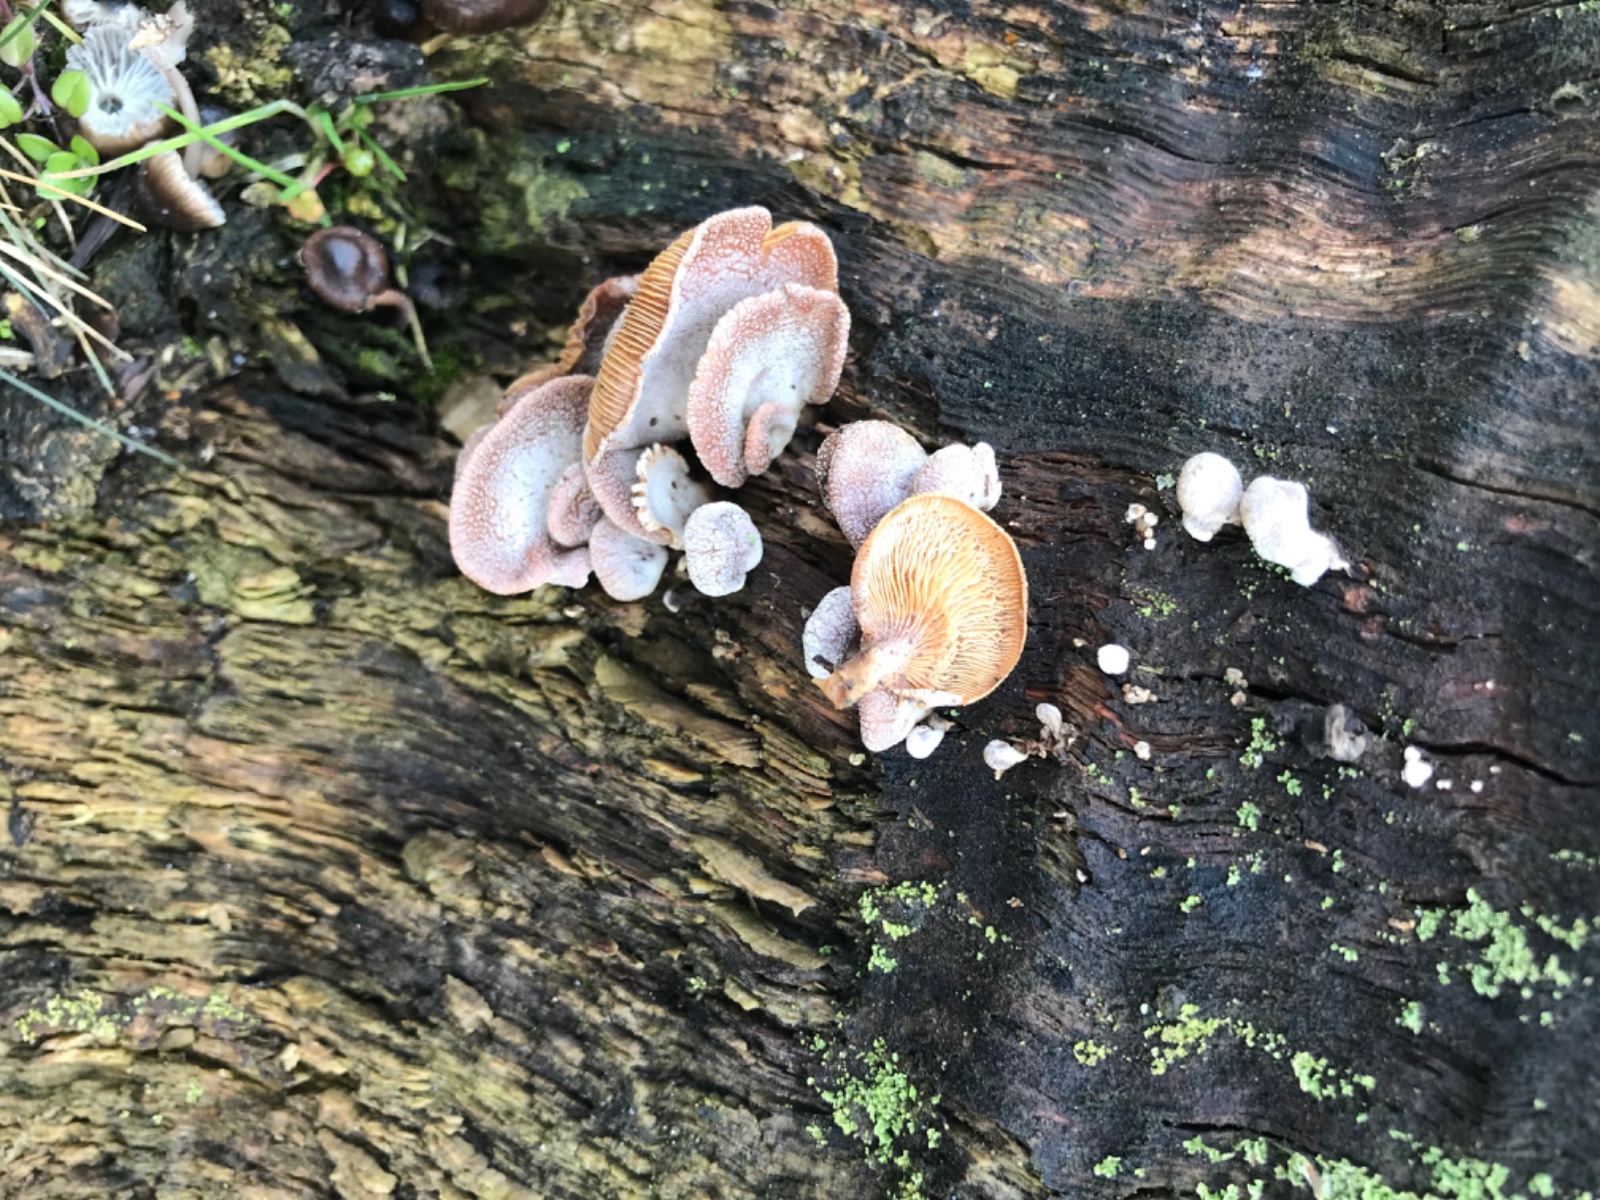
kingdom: Fungi
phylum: Basidiomycota
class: Agaricomycetes
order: Agaricales
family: Mycenaceae
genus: Panellus
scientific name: Panellus stipticus
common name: kliddet epaulethat
